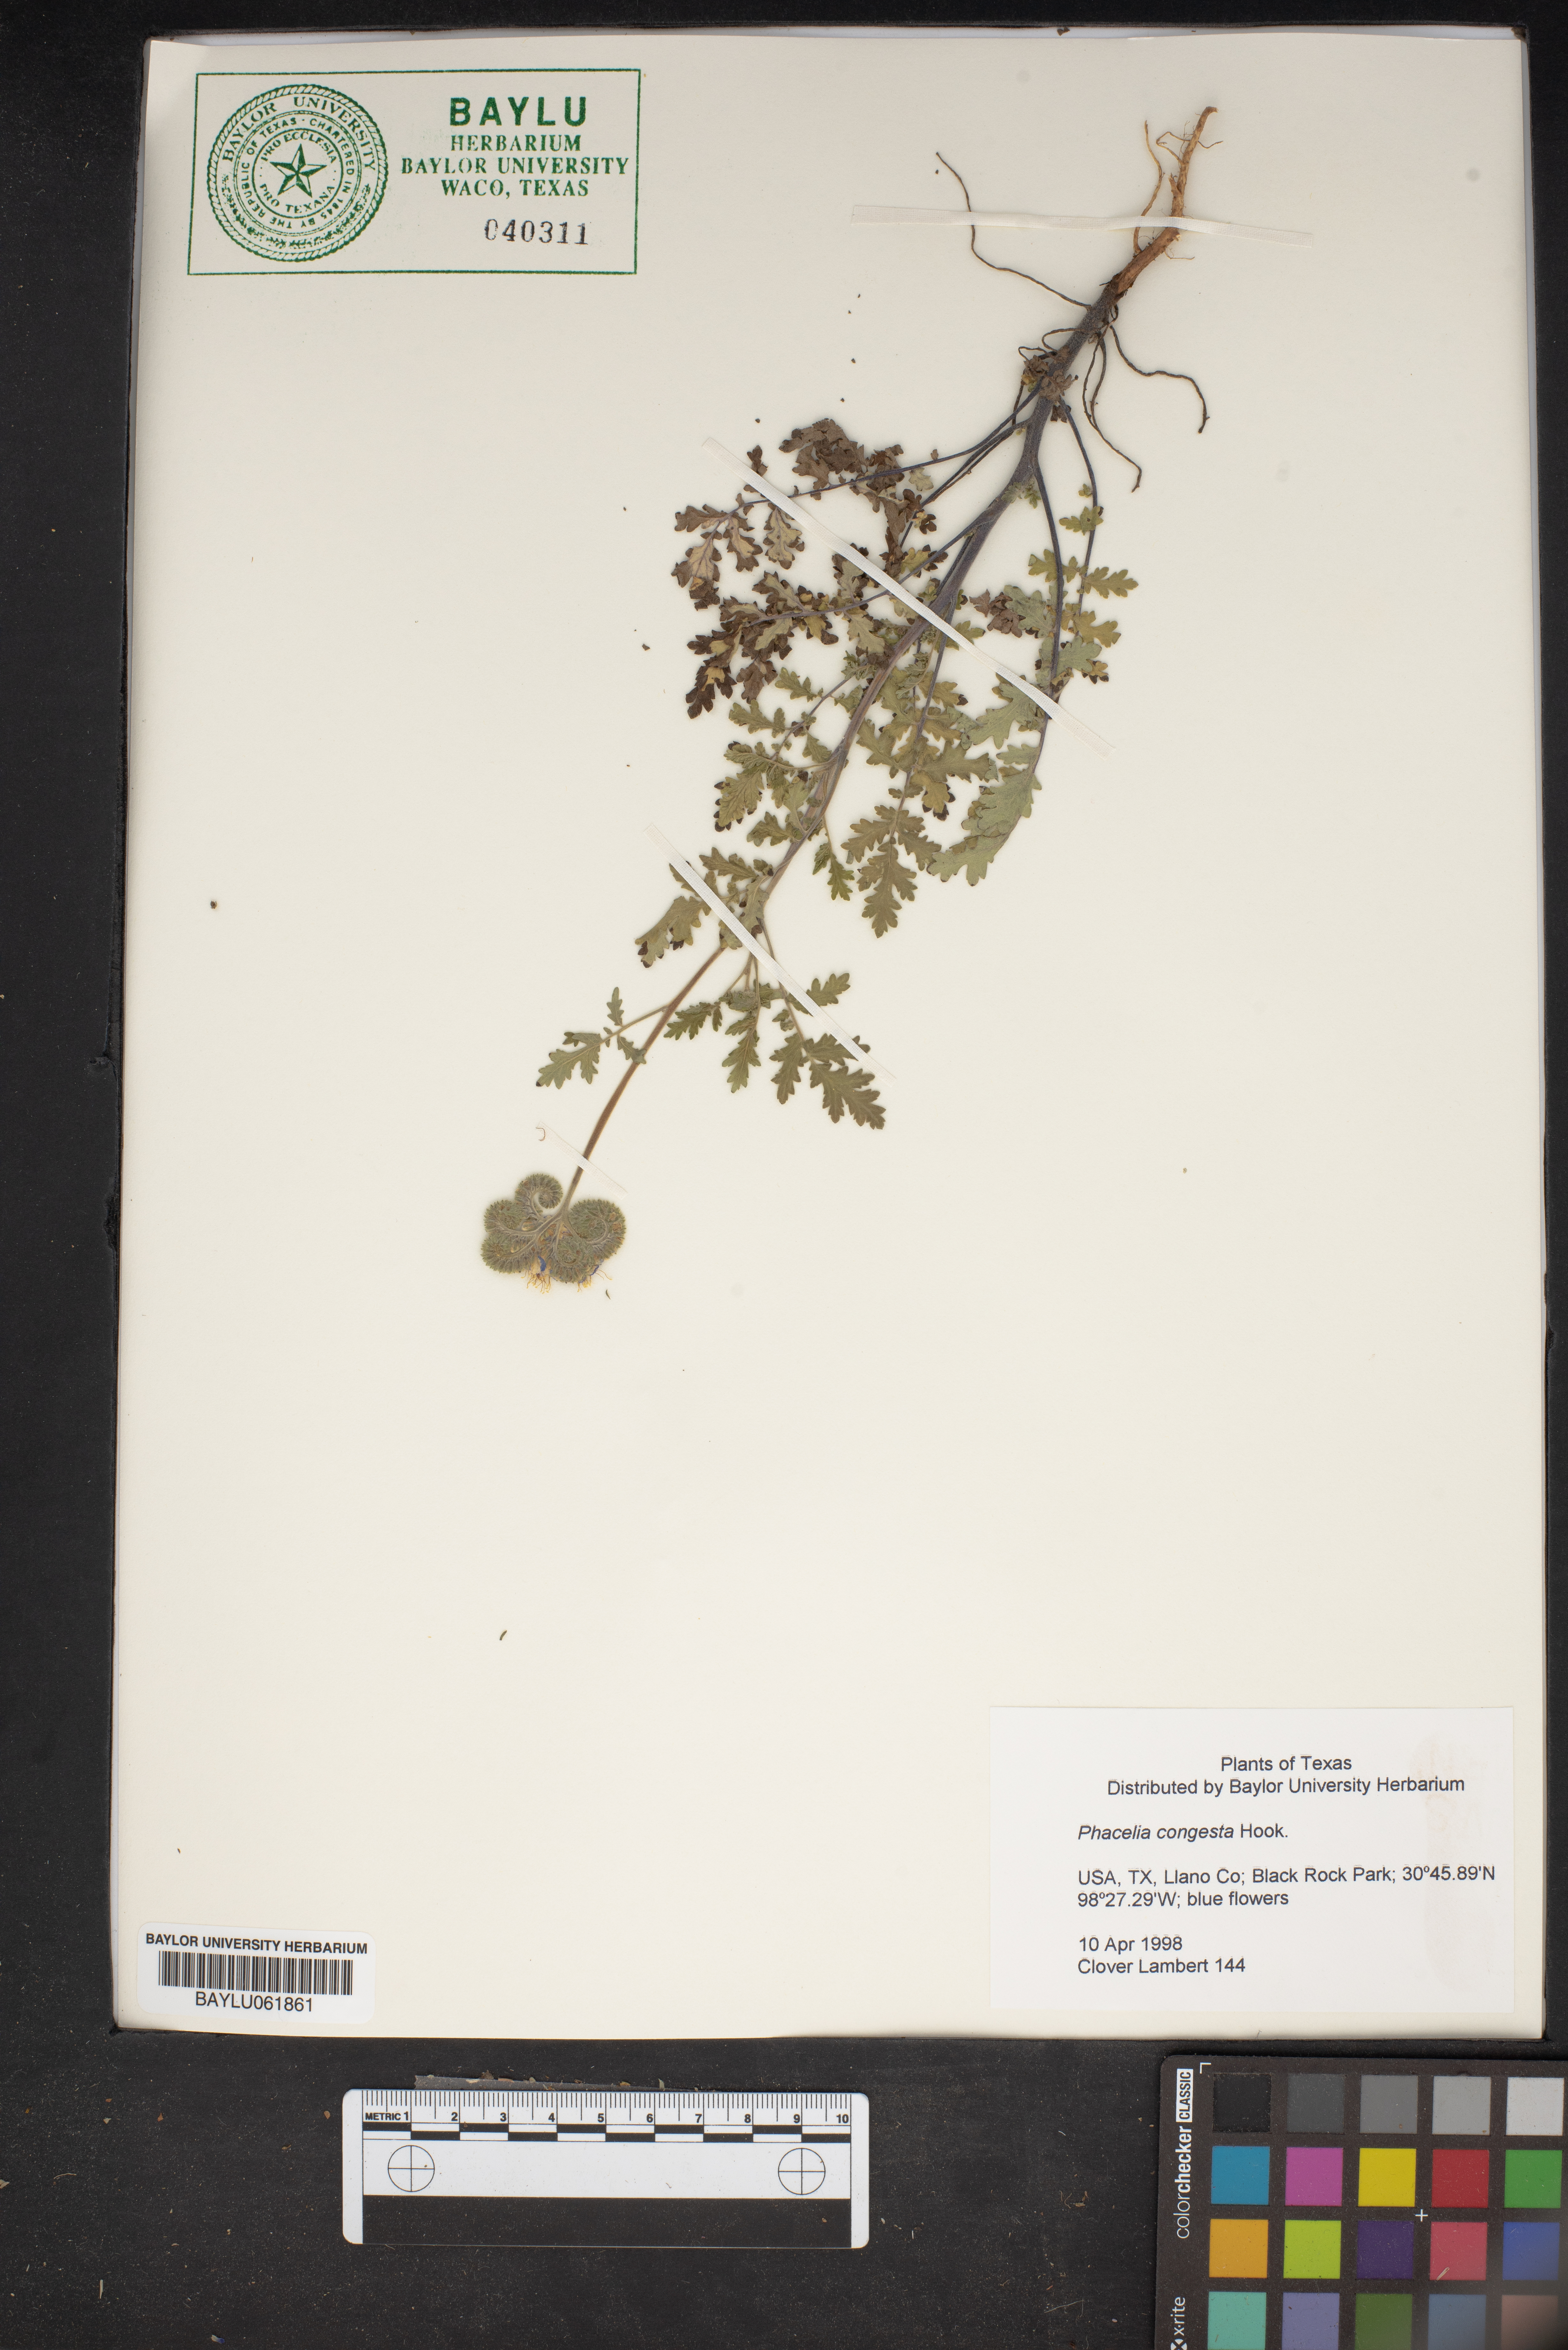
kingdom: Plantae
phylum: Tracheophyta
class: Magnoliopsida
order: Boraginales
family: Hydrophyllaceae
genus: Phacelia
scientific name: Phacelia congesta
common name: Blue curls
